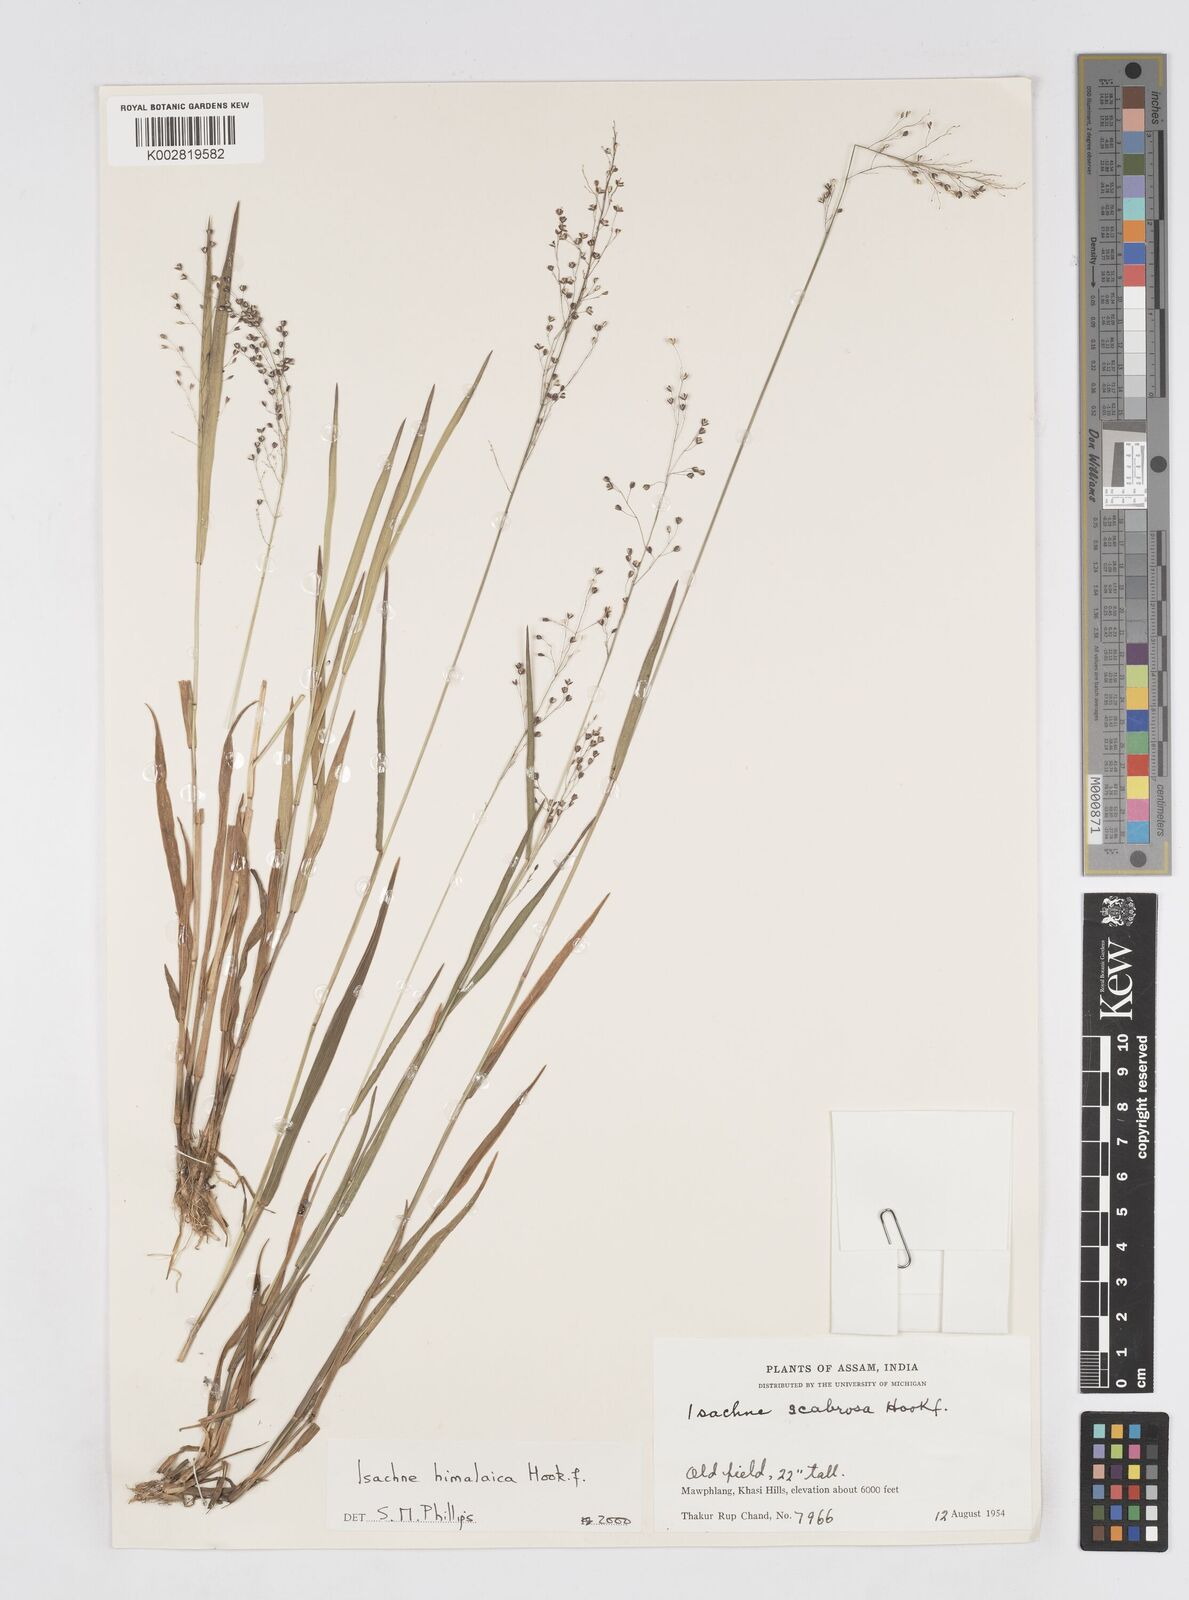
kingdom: Plantae
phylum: Tracheophyta
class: Liliopsida
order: Poales
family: Poaceae
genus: Isachne
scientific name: Isachne himalaica
